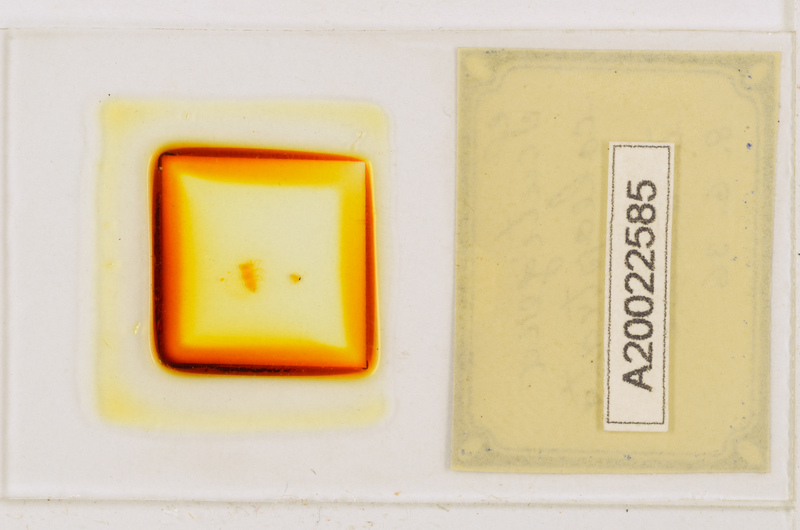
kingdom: Animalia
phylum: Arthropoda
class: Chilopoda
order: Scutigeromorpha
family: Scutigeridae
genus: Scutigera
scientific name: Scutigera coleoptrata
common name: House centipede
